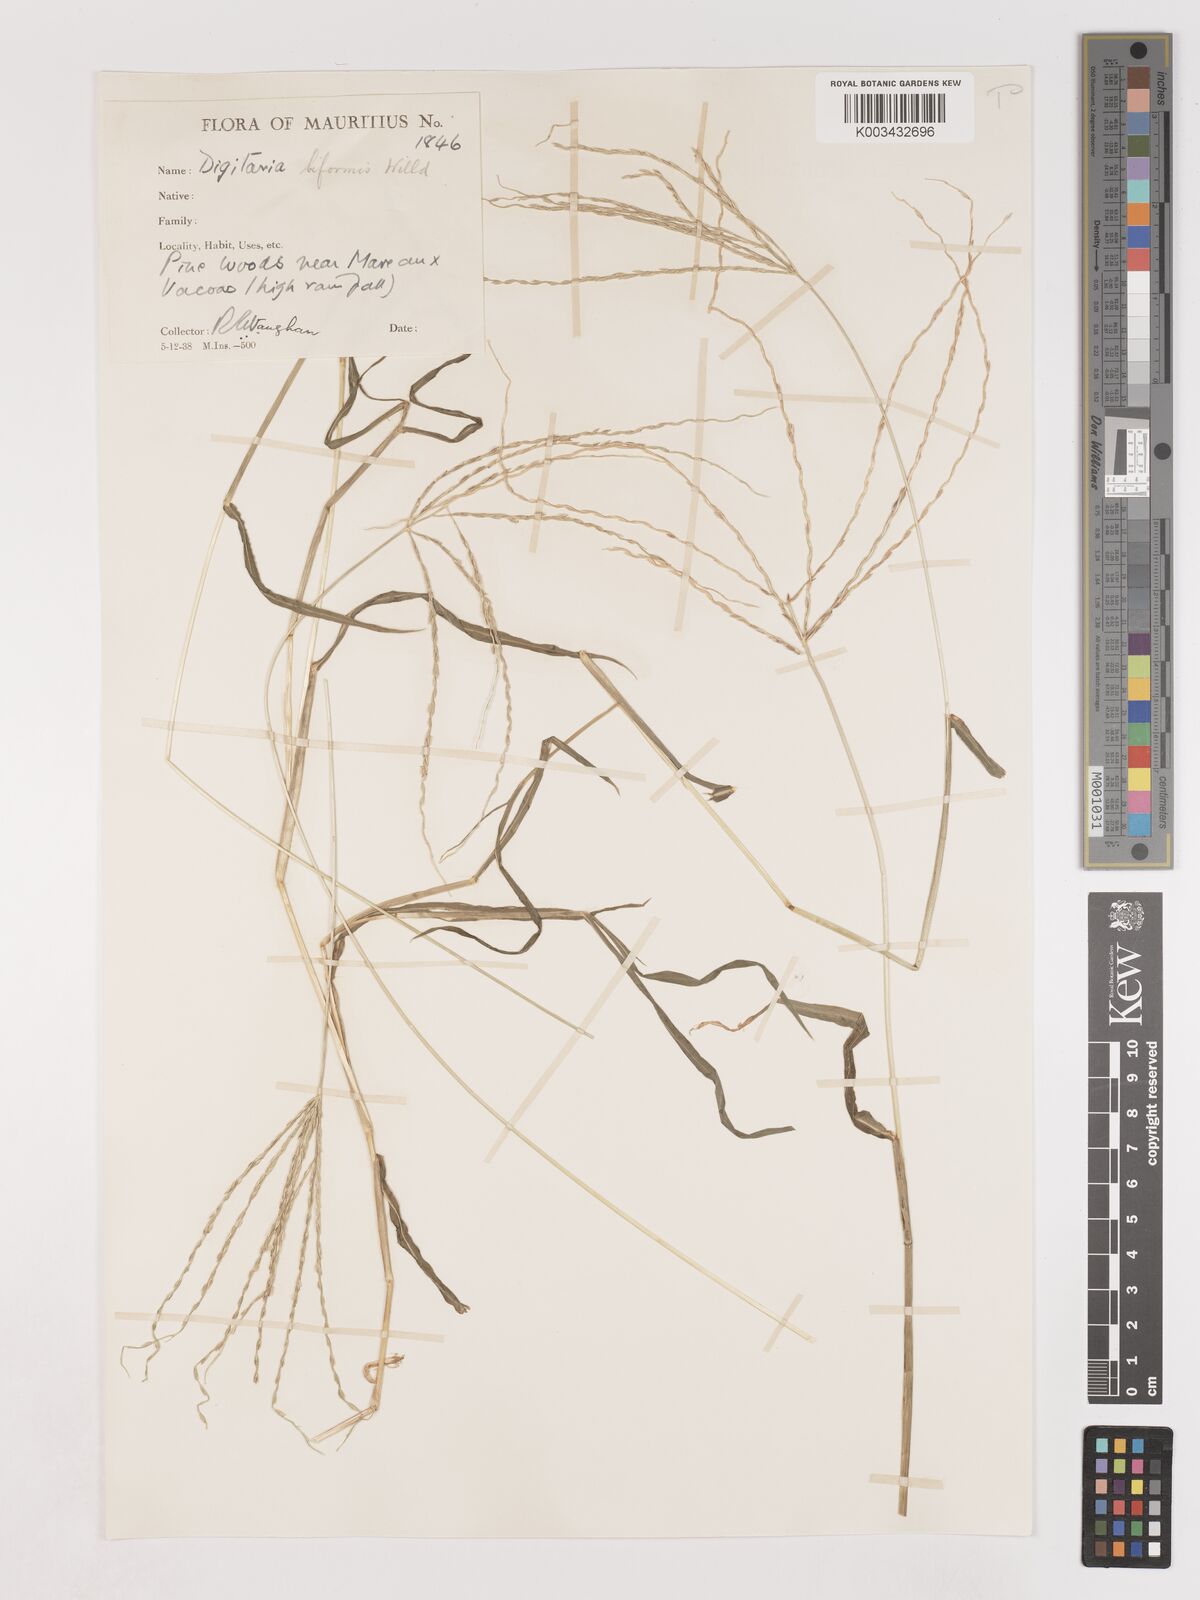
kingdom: Plantae
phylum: Tracheophyta
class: Liliopsida
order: Poales
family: Poaceae
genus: Digitaria
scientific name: Digitaria ciliaris
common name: Tropical finger-grass
